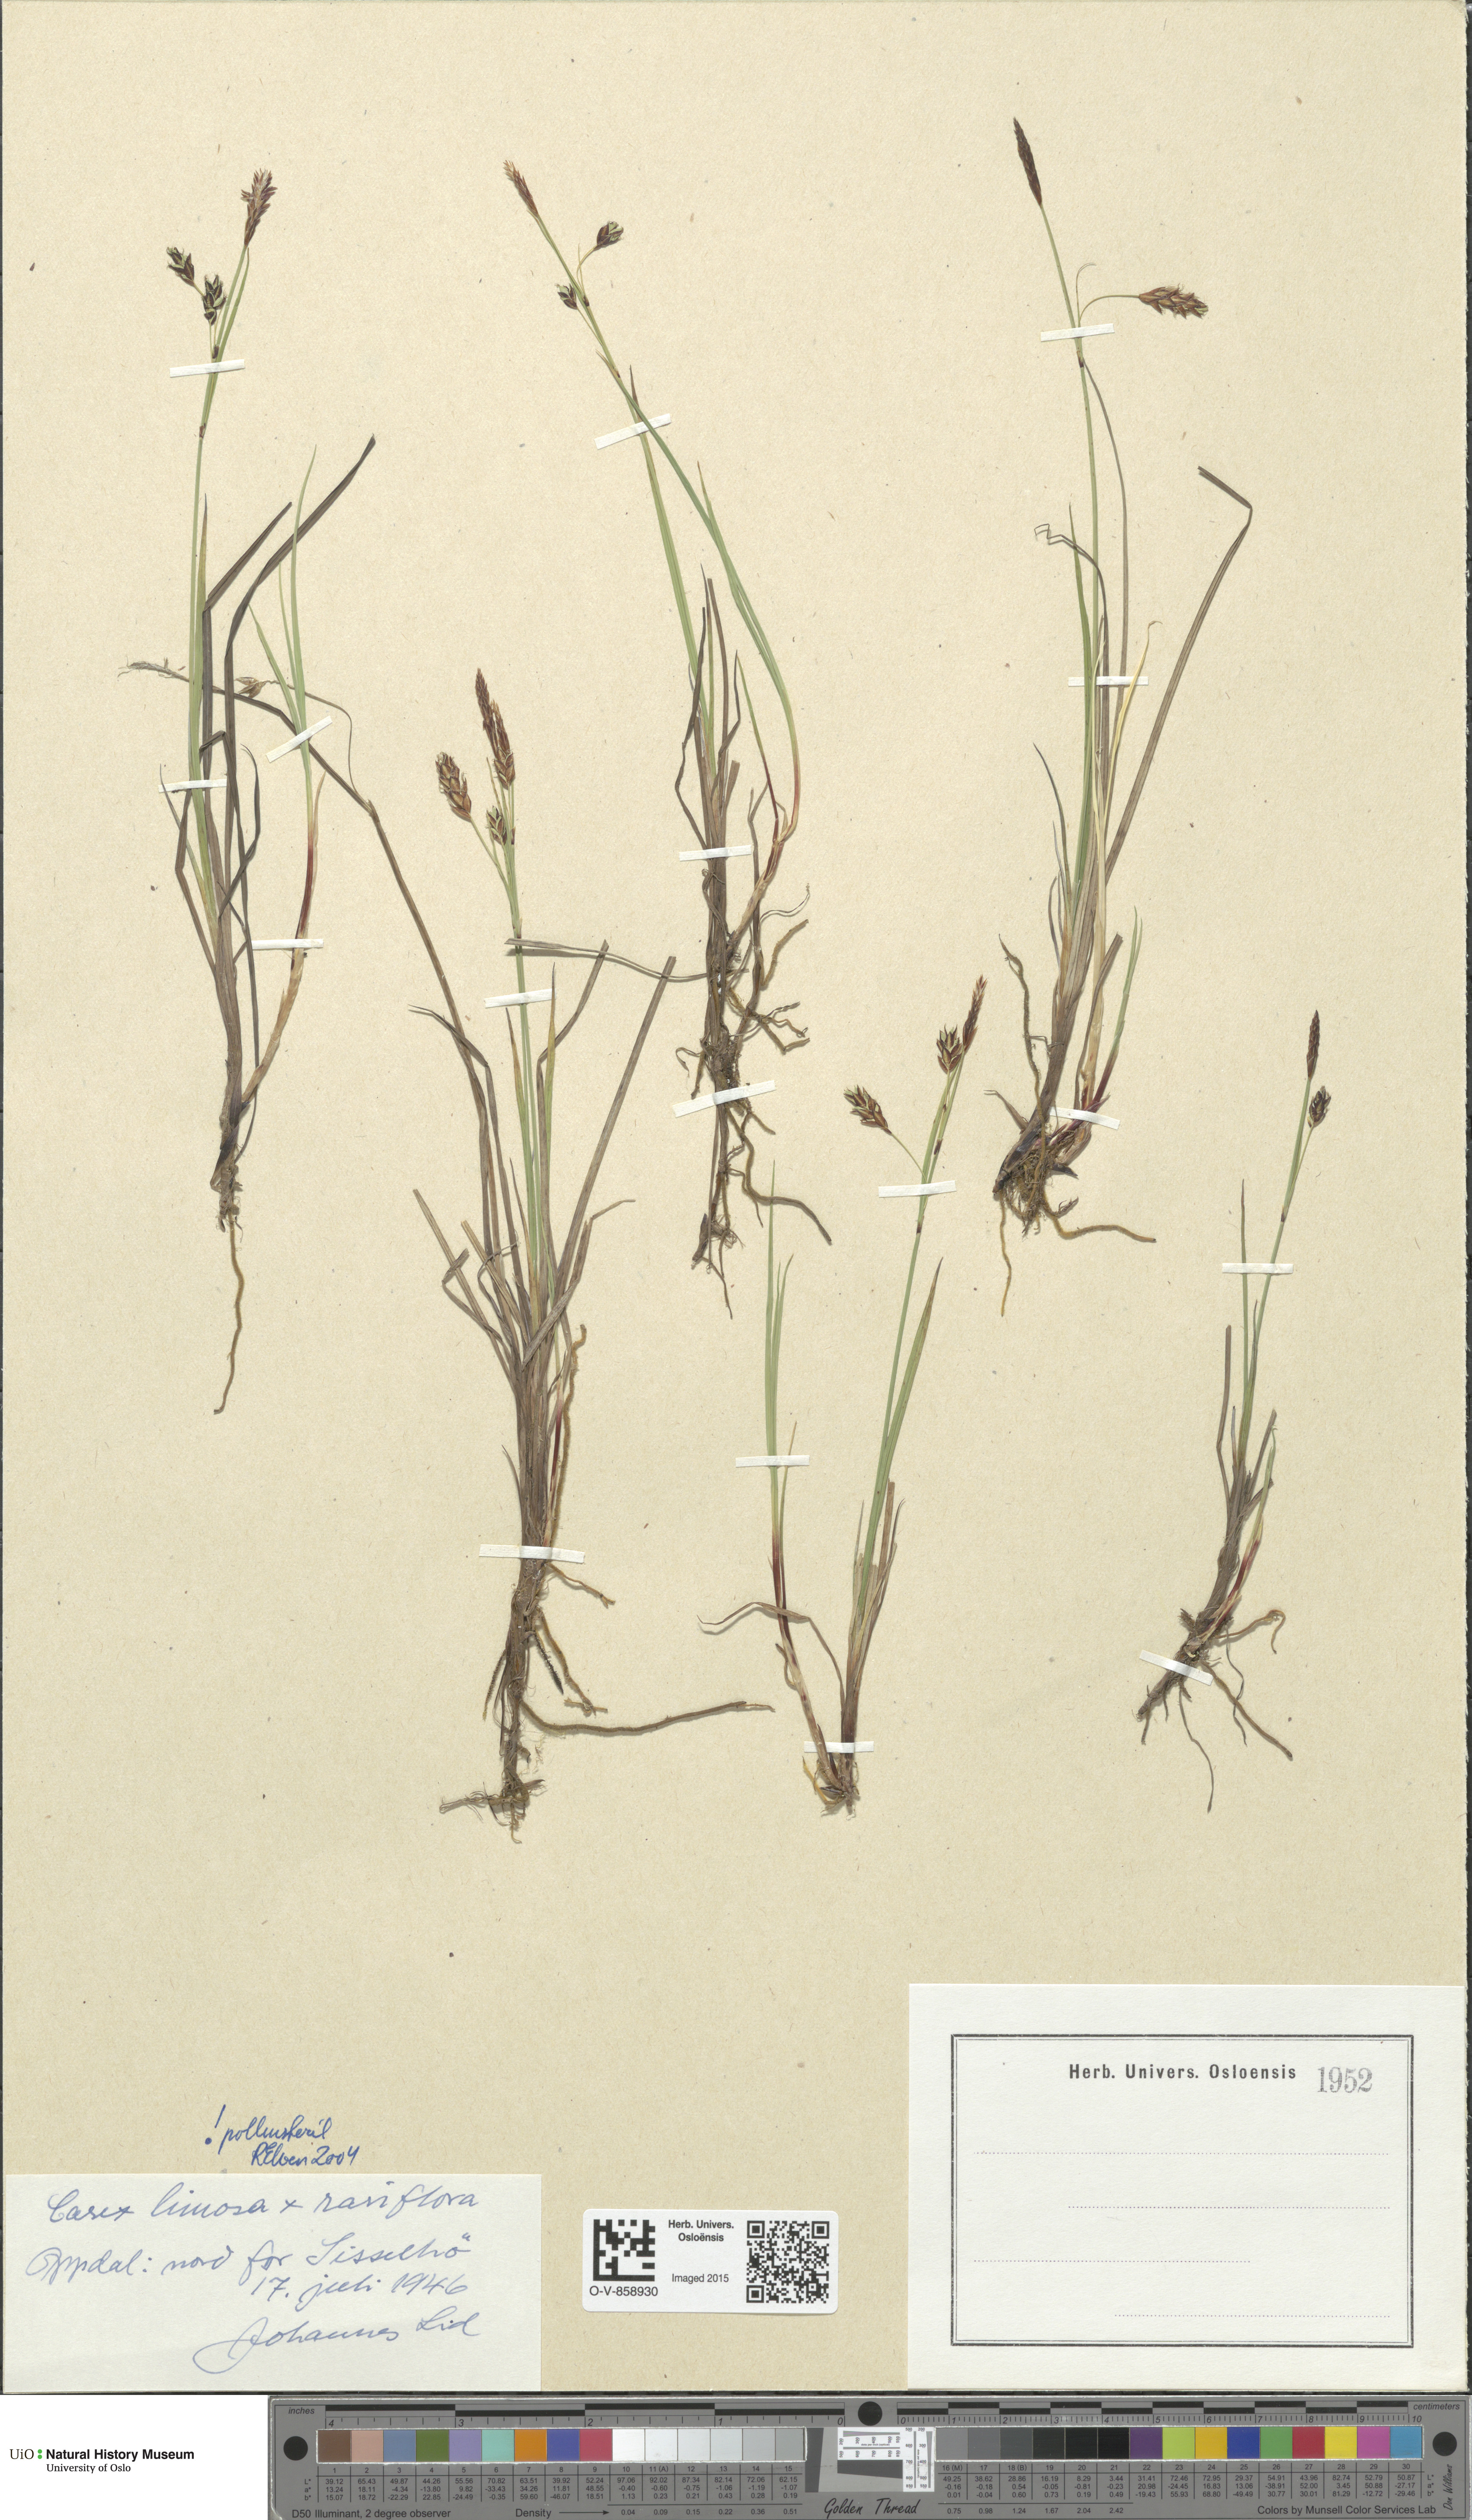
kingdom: Plantae
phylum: Tracheophyta
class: Liliopsida
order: Poales
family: Cyperaceae
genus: Carex
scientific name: Carex
